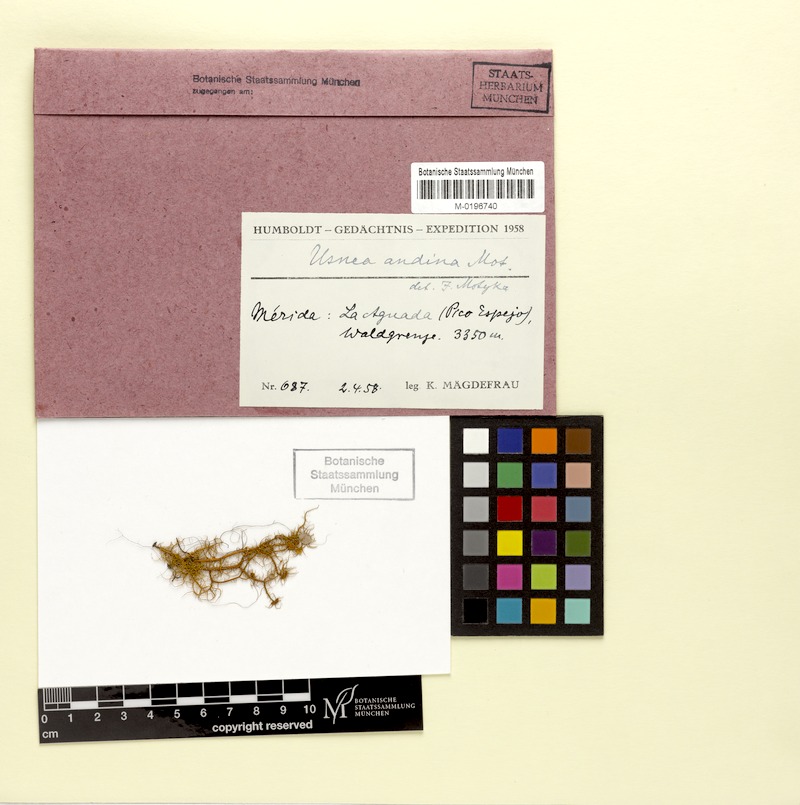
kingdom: Fungi
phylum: Ascomycota
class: Lecanoromycetes
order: Lecanorales
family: Parmeliaceae
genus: Usnea
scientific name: Usnea andina
